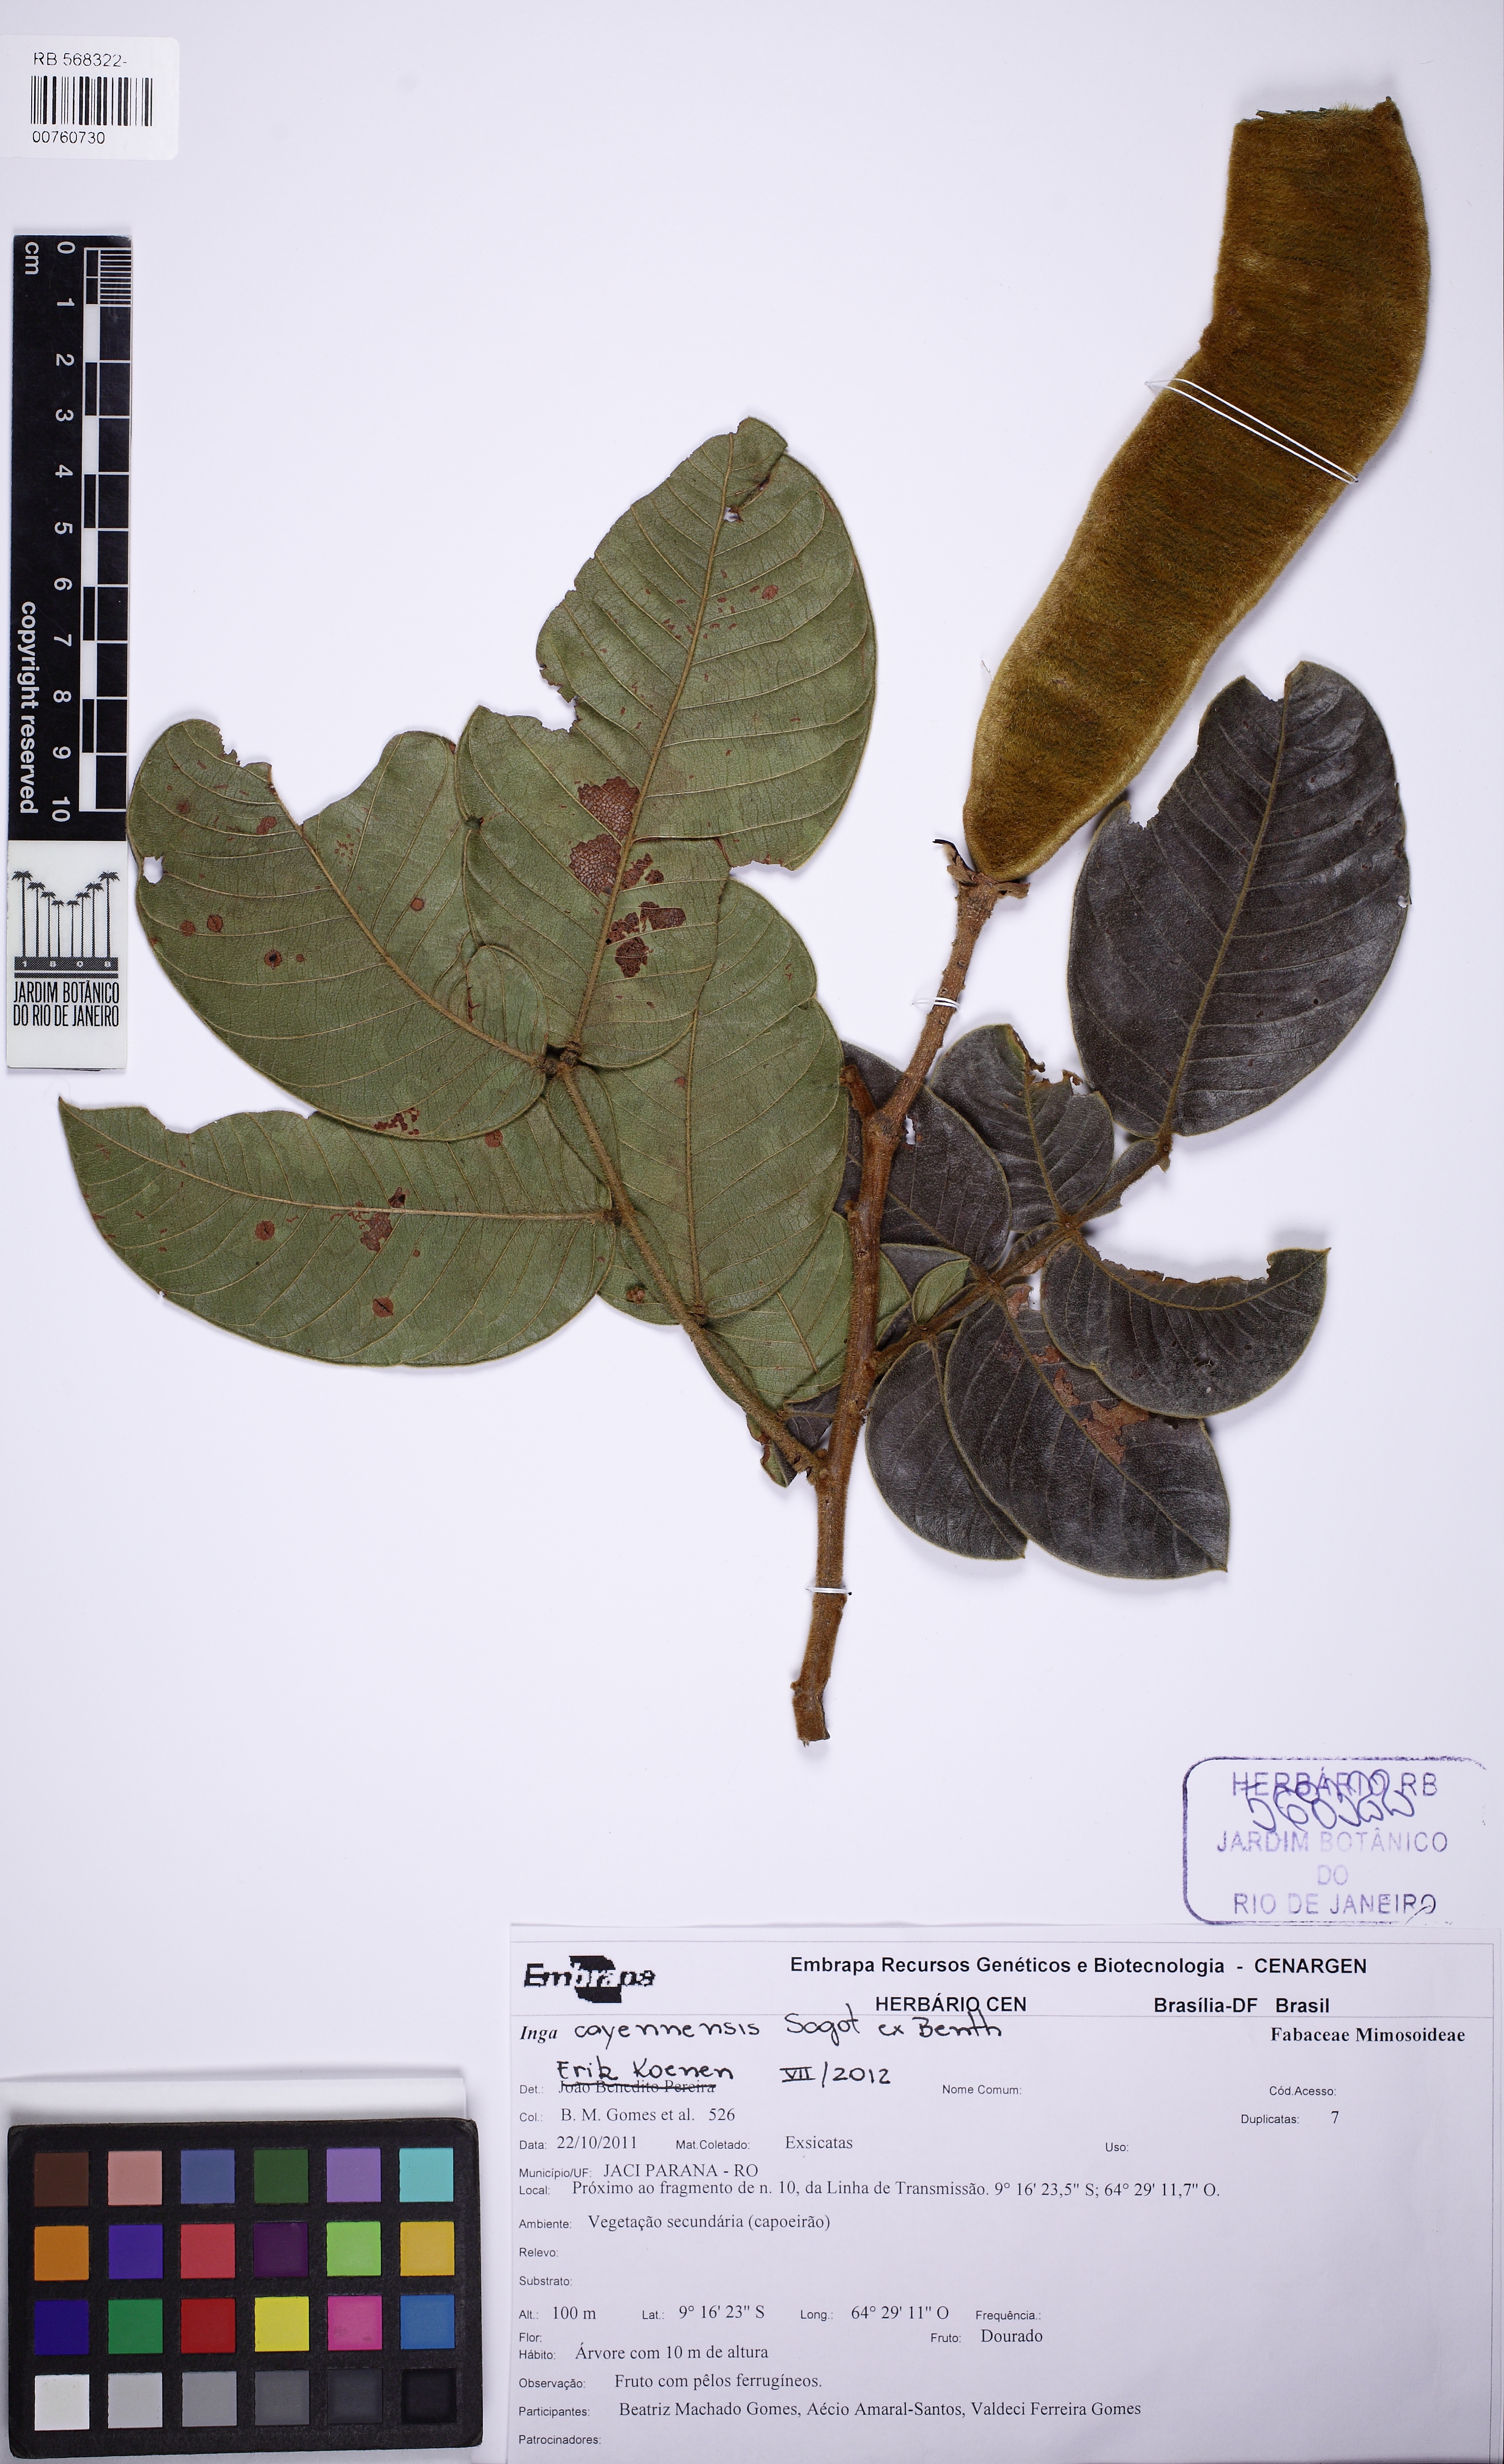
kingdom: Plantae
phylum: Tracheophyta
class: Magnoliopsida
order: Fabales
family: Fabaceae
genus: Inga
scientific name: Inga cayennensis
